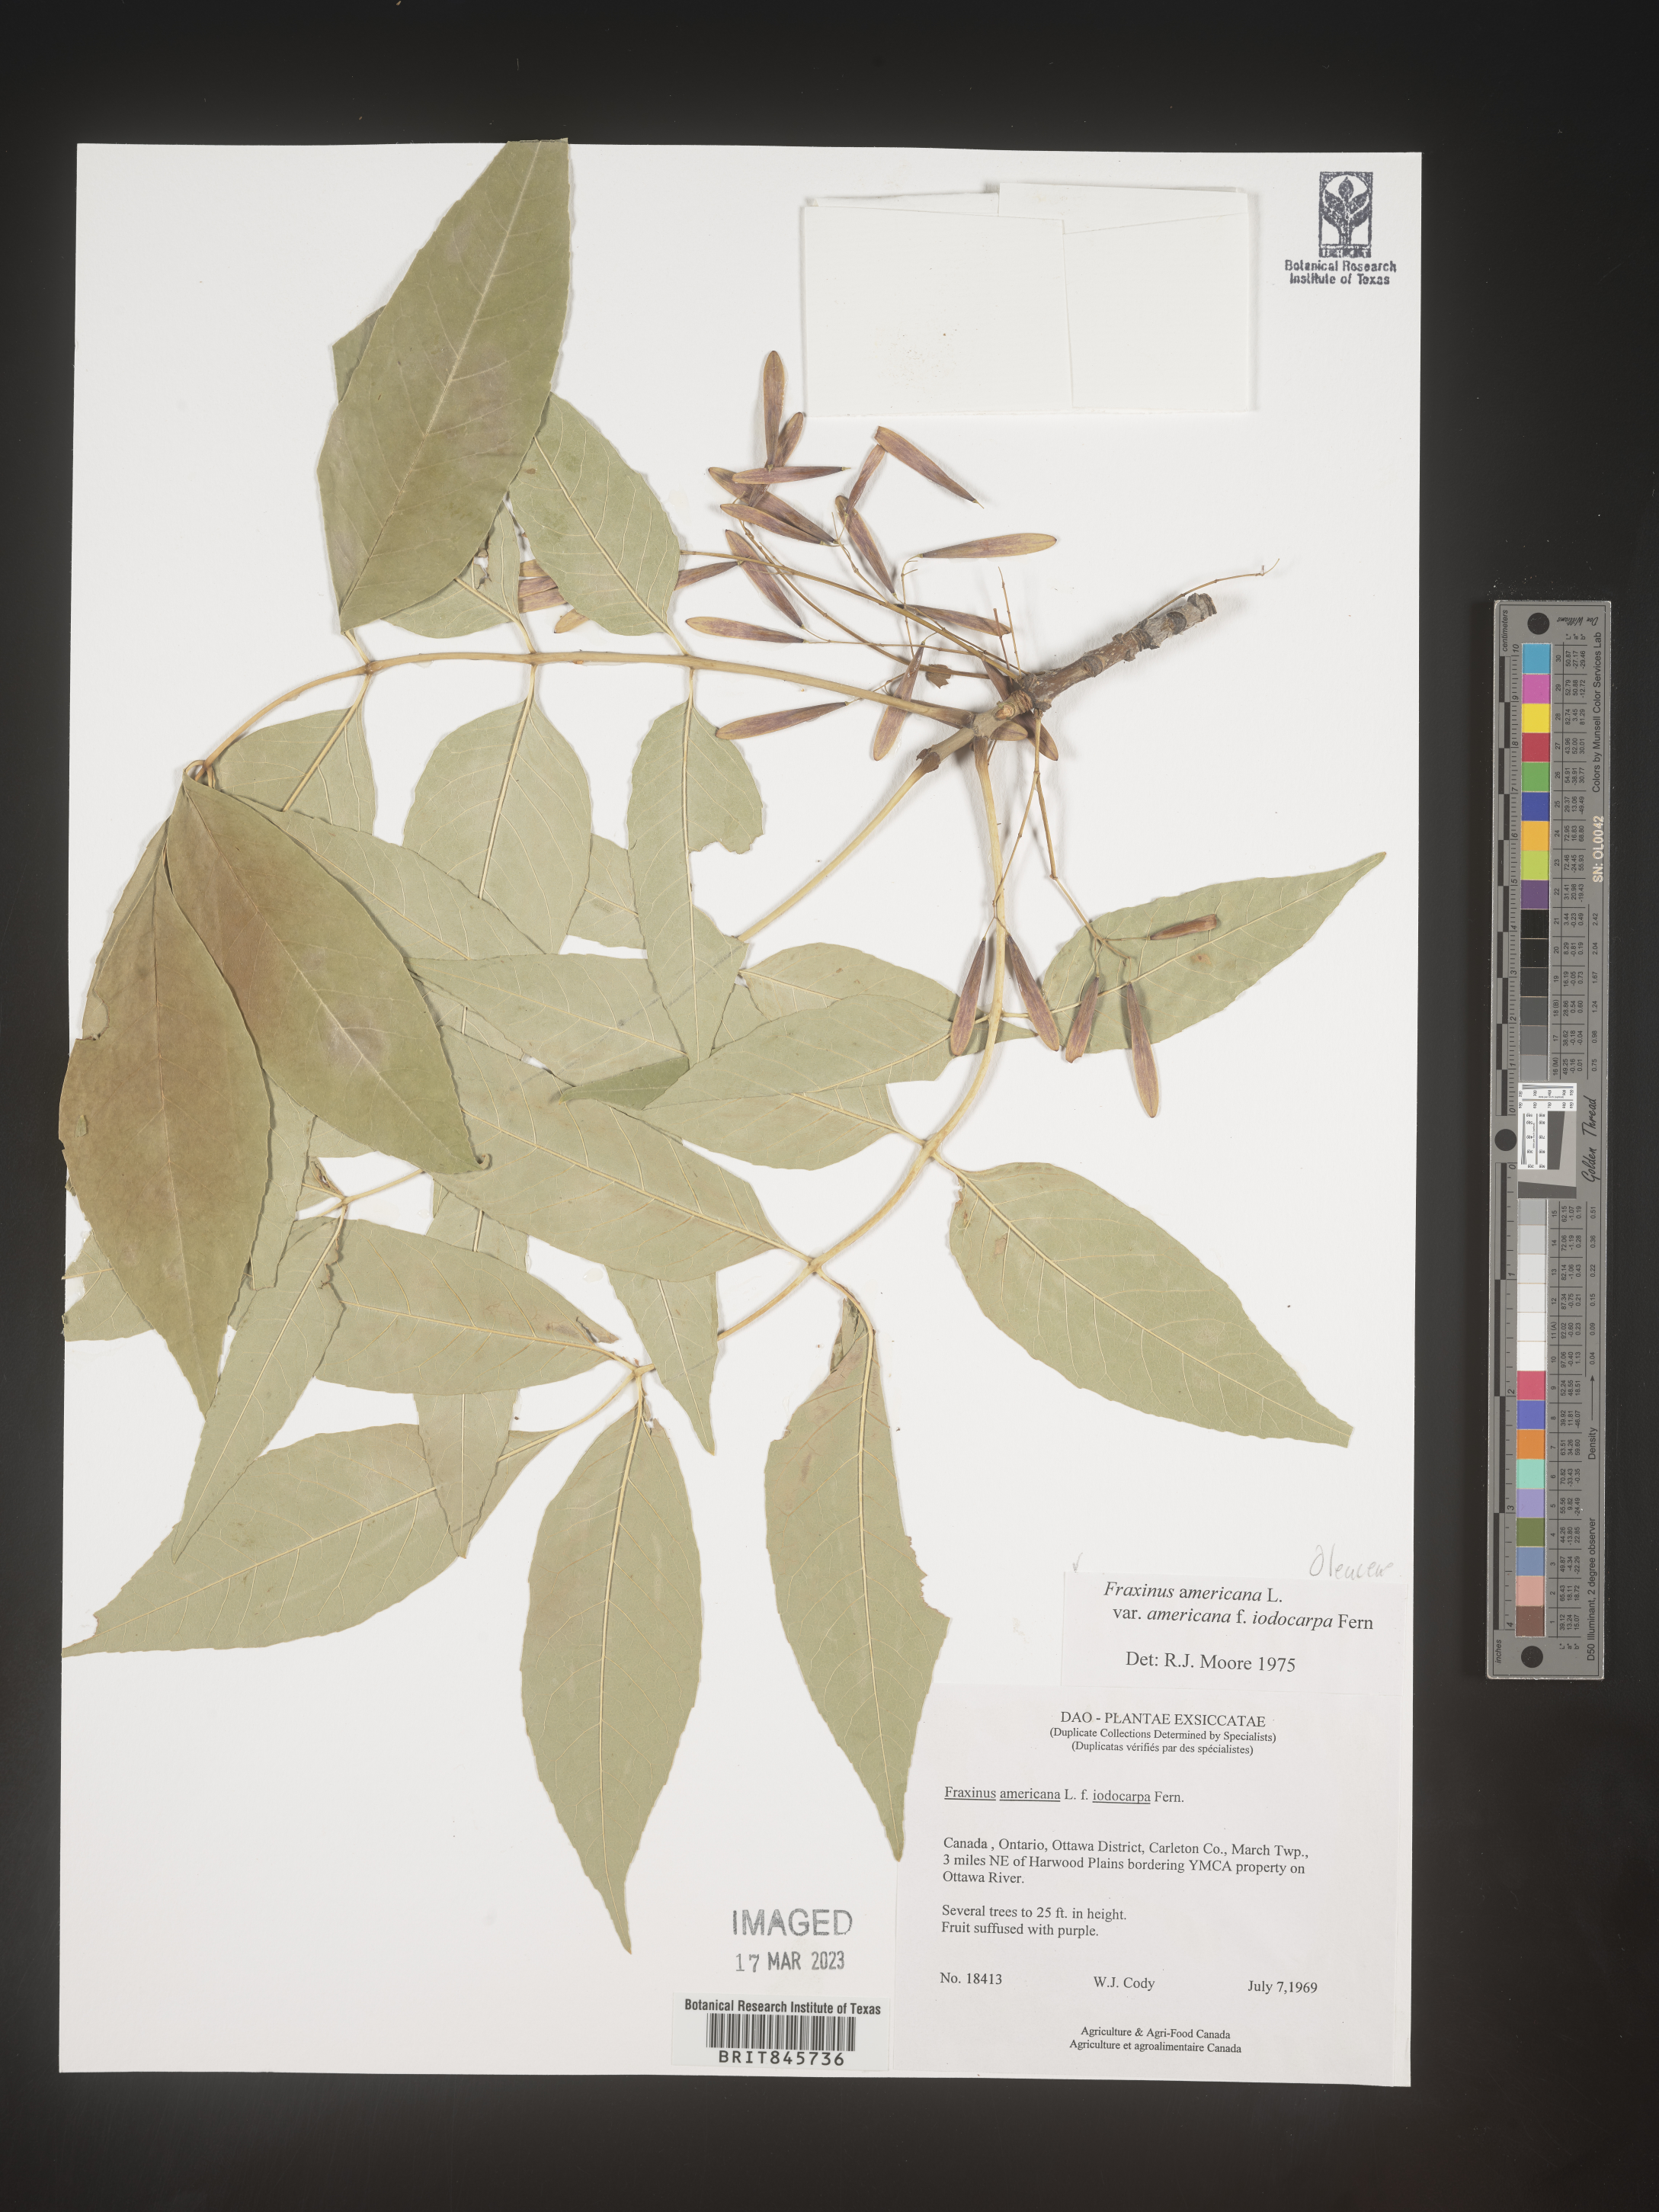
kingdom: Plantae
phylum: Tracheophyta
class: Magnoliopsida
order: Lamiales
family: Oleaceae
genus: Fraxinus
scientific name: Fraxinus americana
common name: White ash
